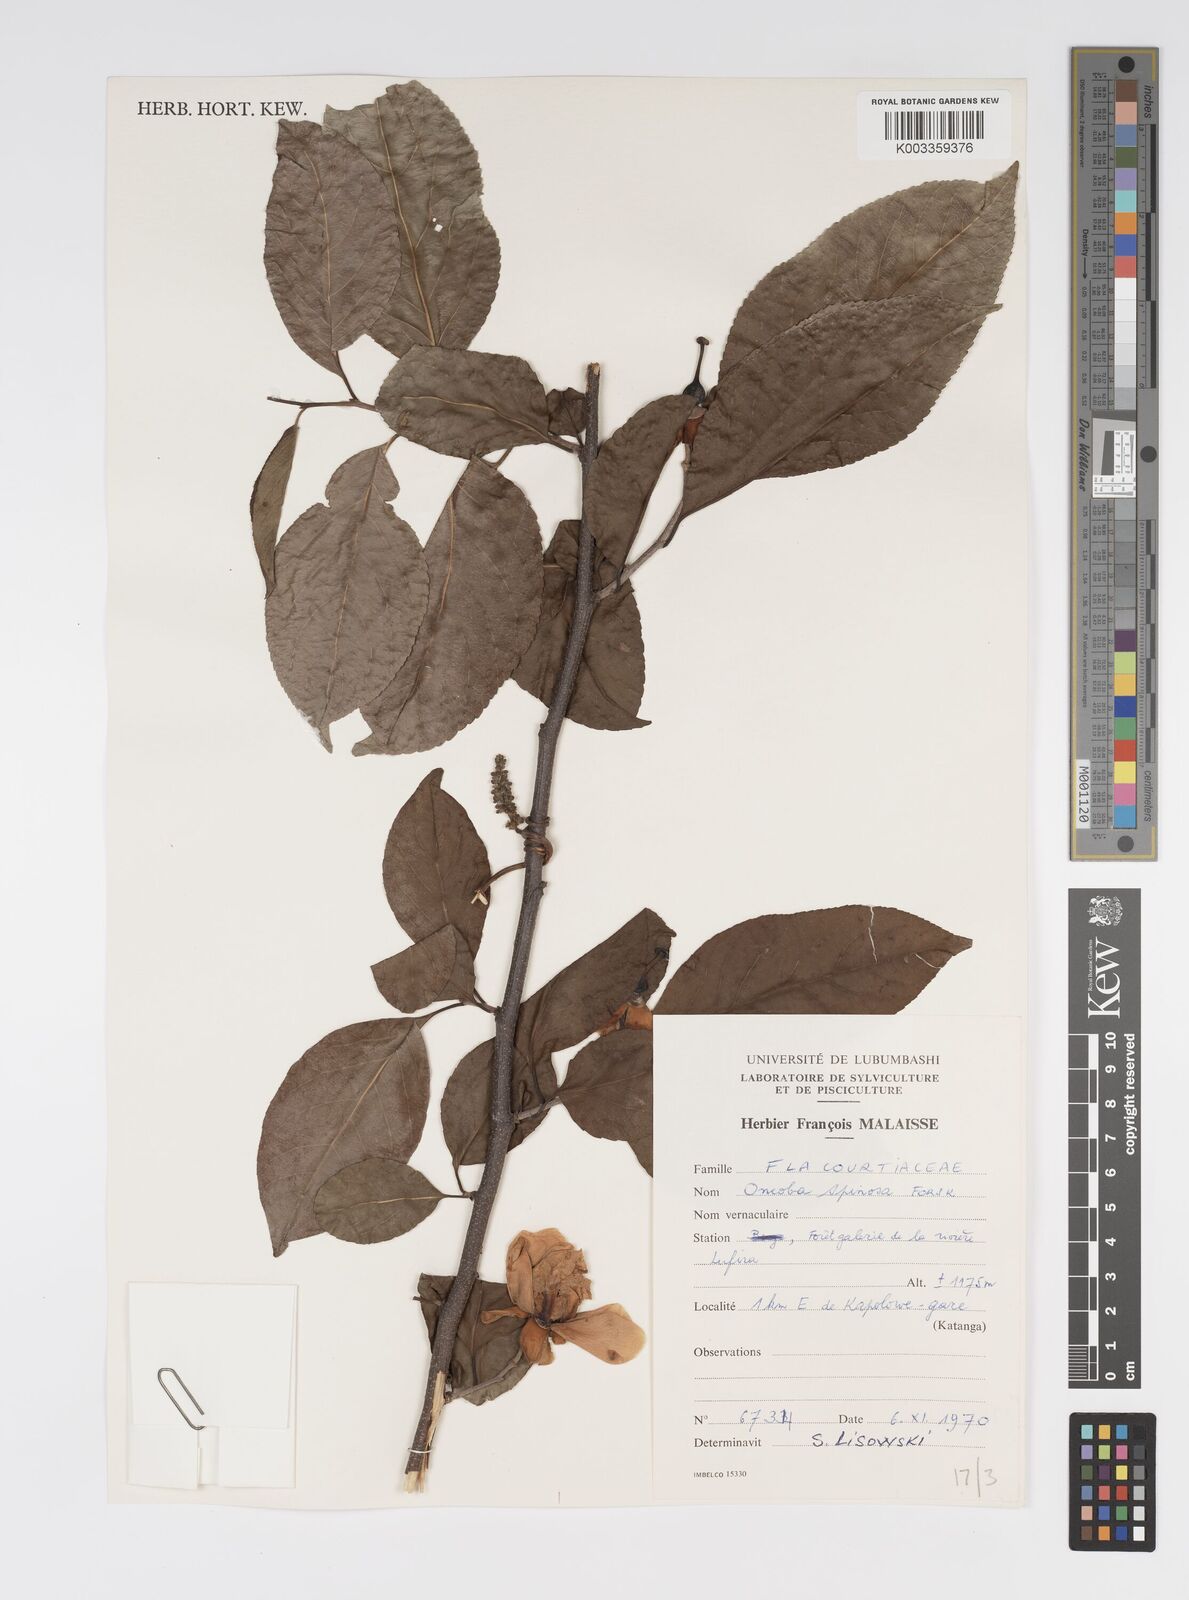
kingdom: Plantae
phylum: Tracheophyta
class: Magnoliopsida
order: Malpighiales
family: Salicaceae
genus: Oncoba
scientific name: Oncoba spinosa
